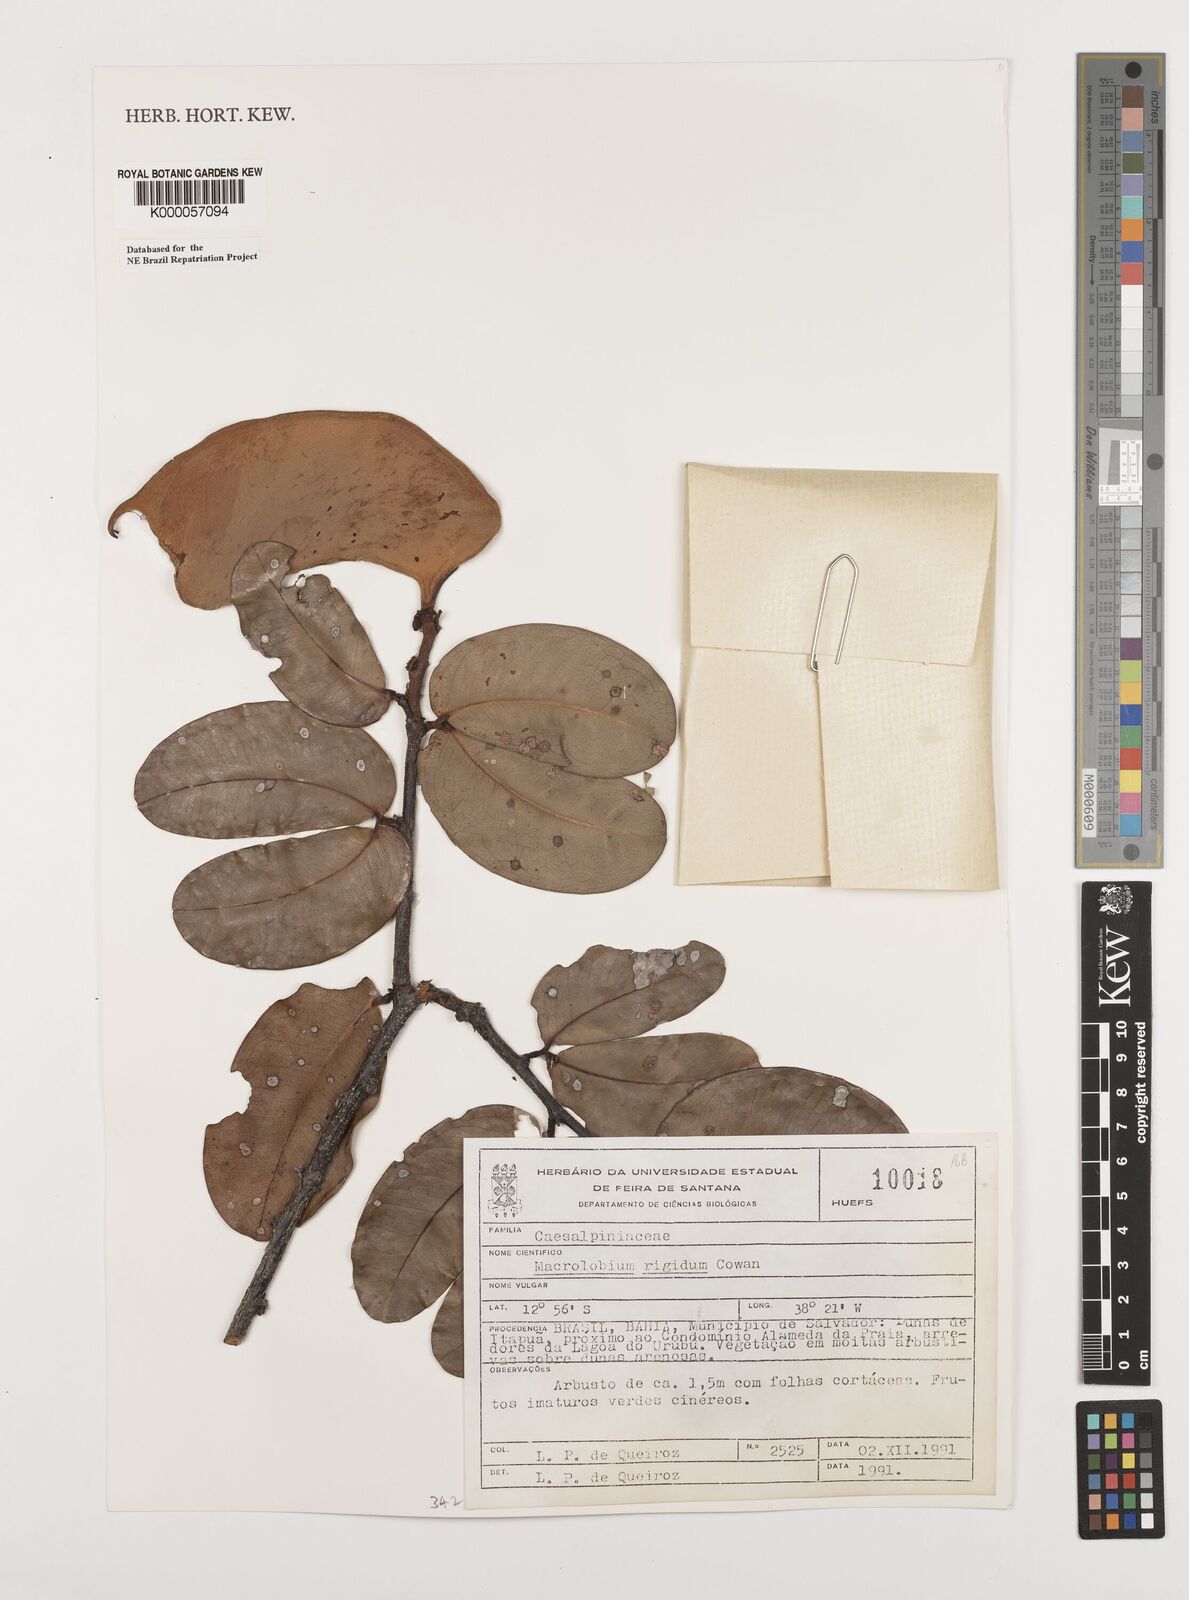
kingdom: Plantae
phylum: Tracheophyta
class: Magnoliopsida
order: Fabales
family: Fabaceae
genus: Macrolobium
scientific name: Macrolobium rigidum
